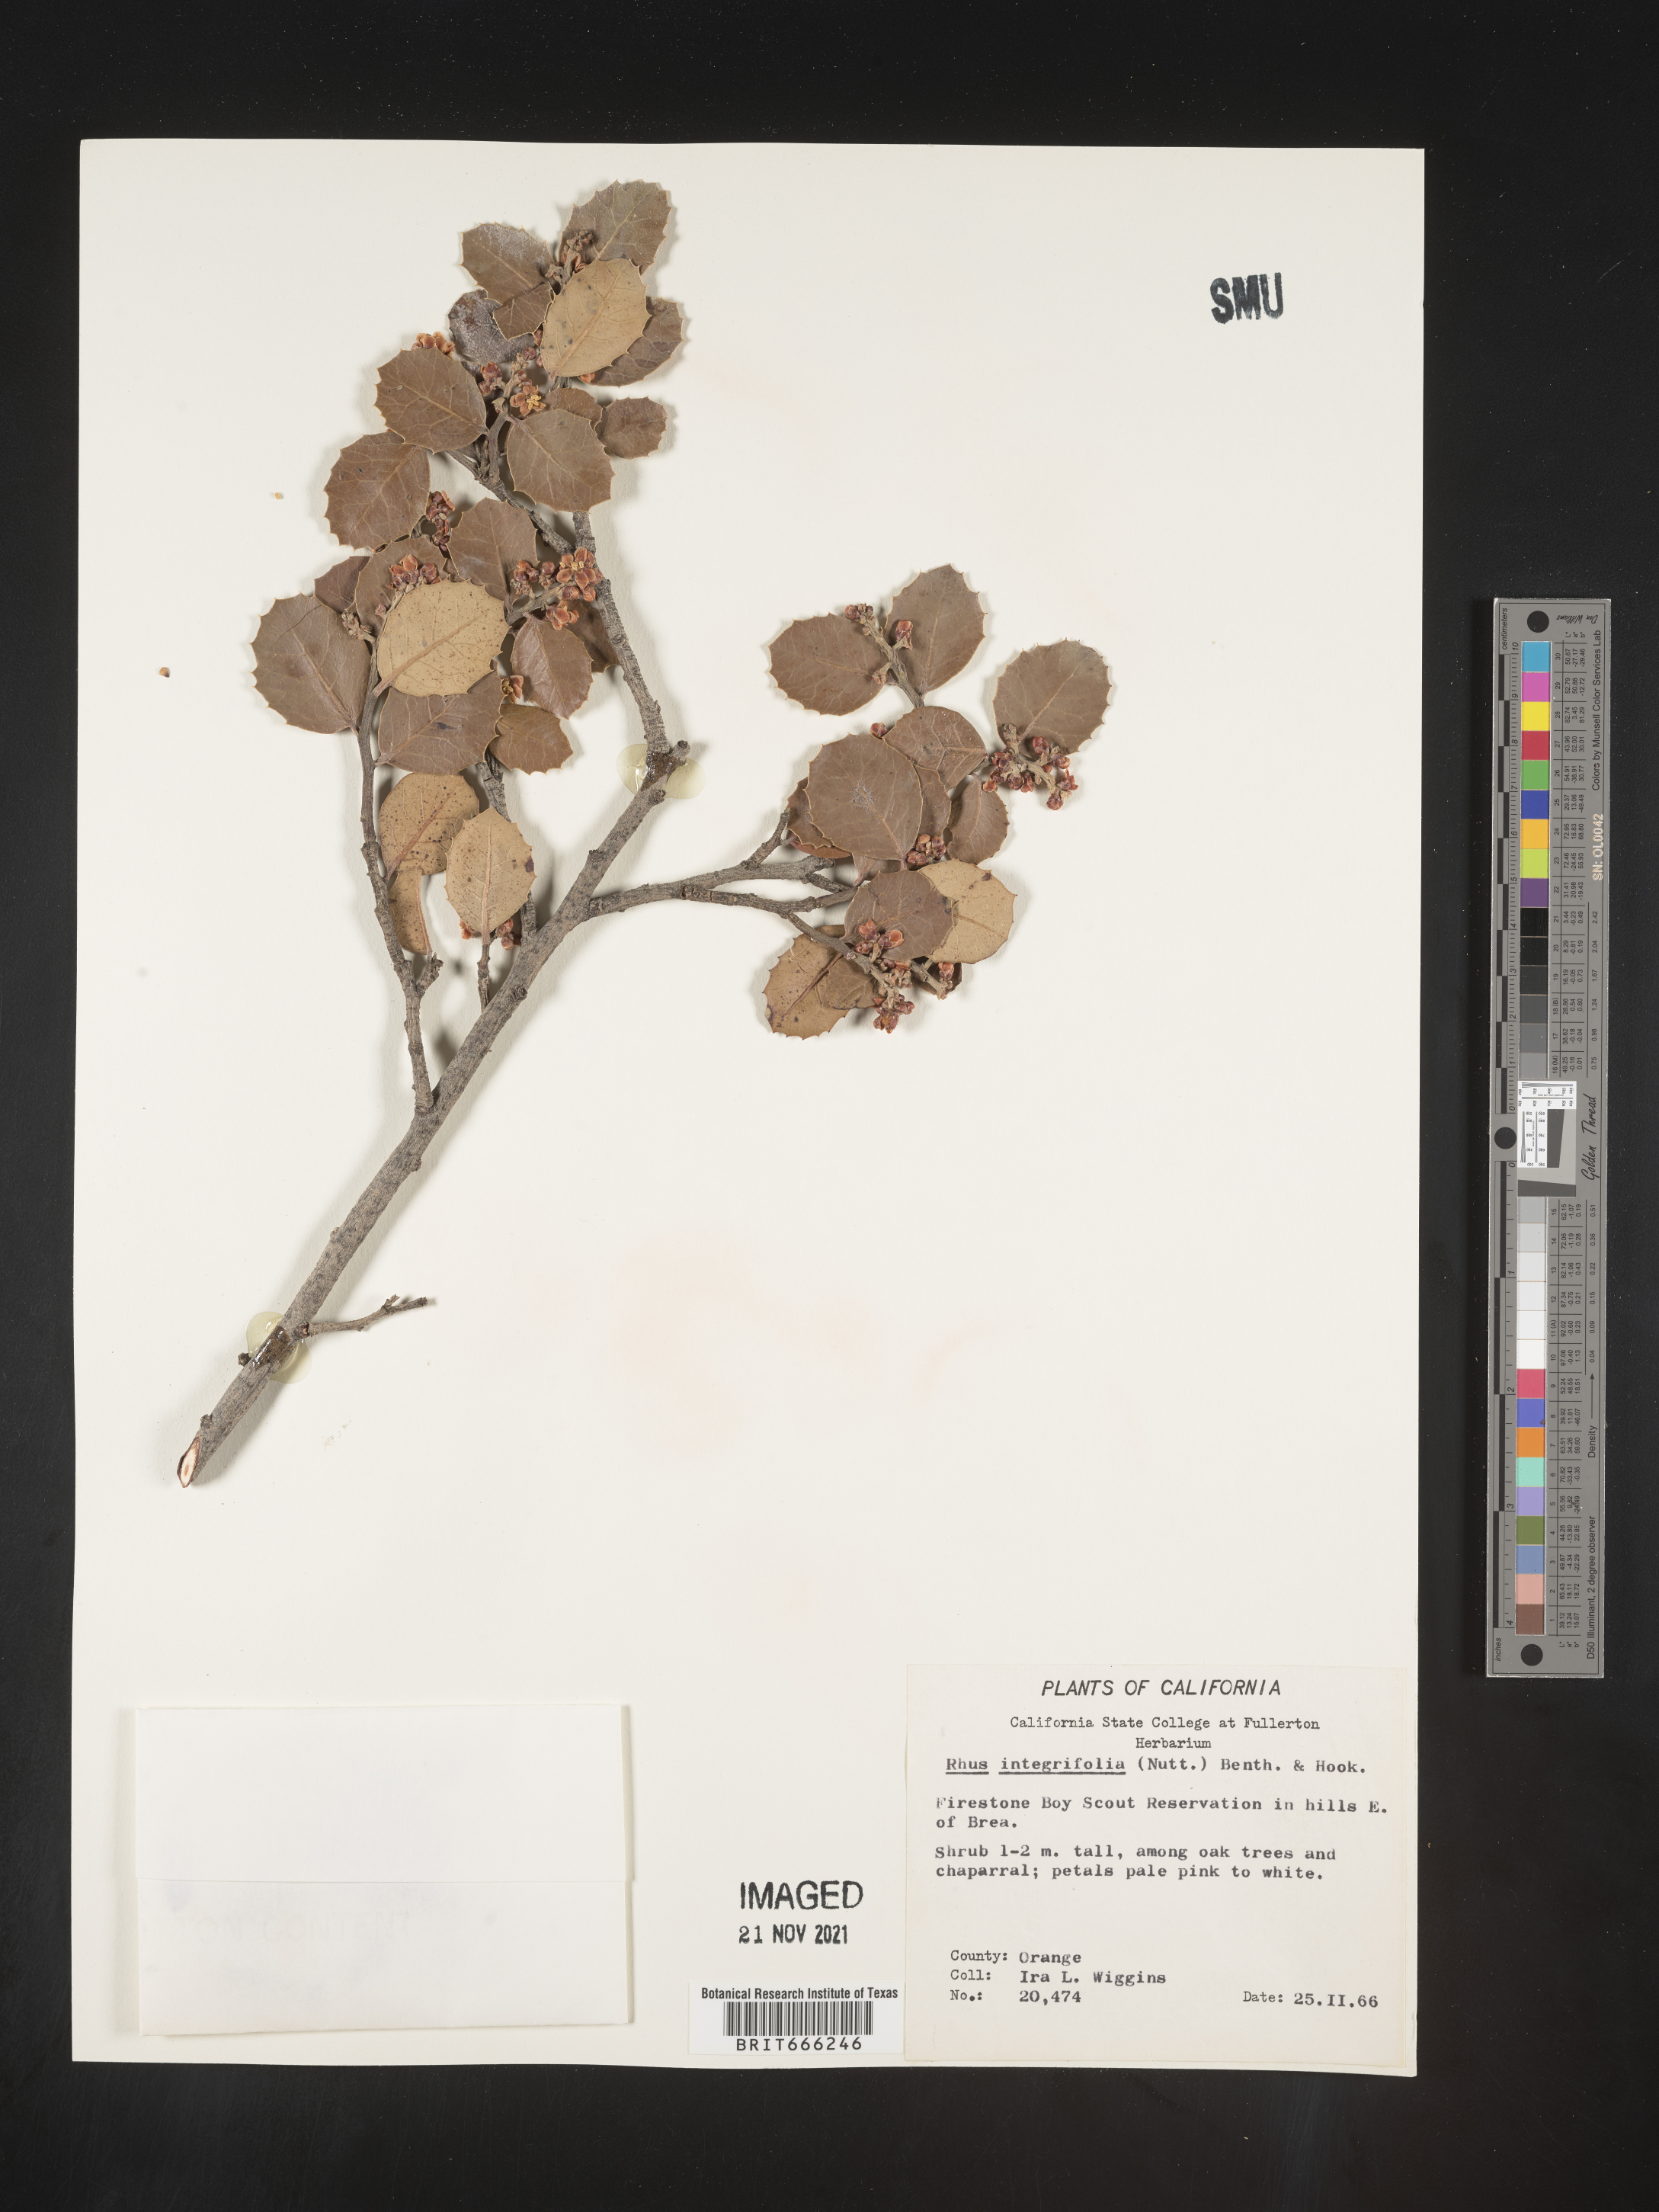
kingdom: Plantae
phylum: Tracheophyta
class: Magnoliopsida
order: Sapindales
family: Anacardiaceae
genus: Rhus
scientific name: Rhus
